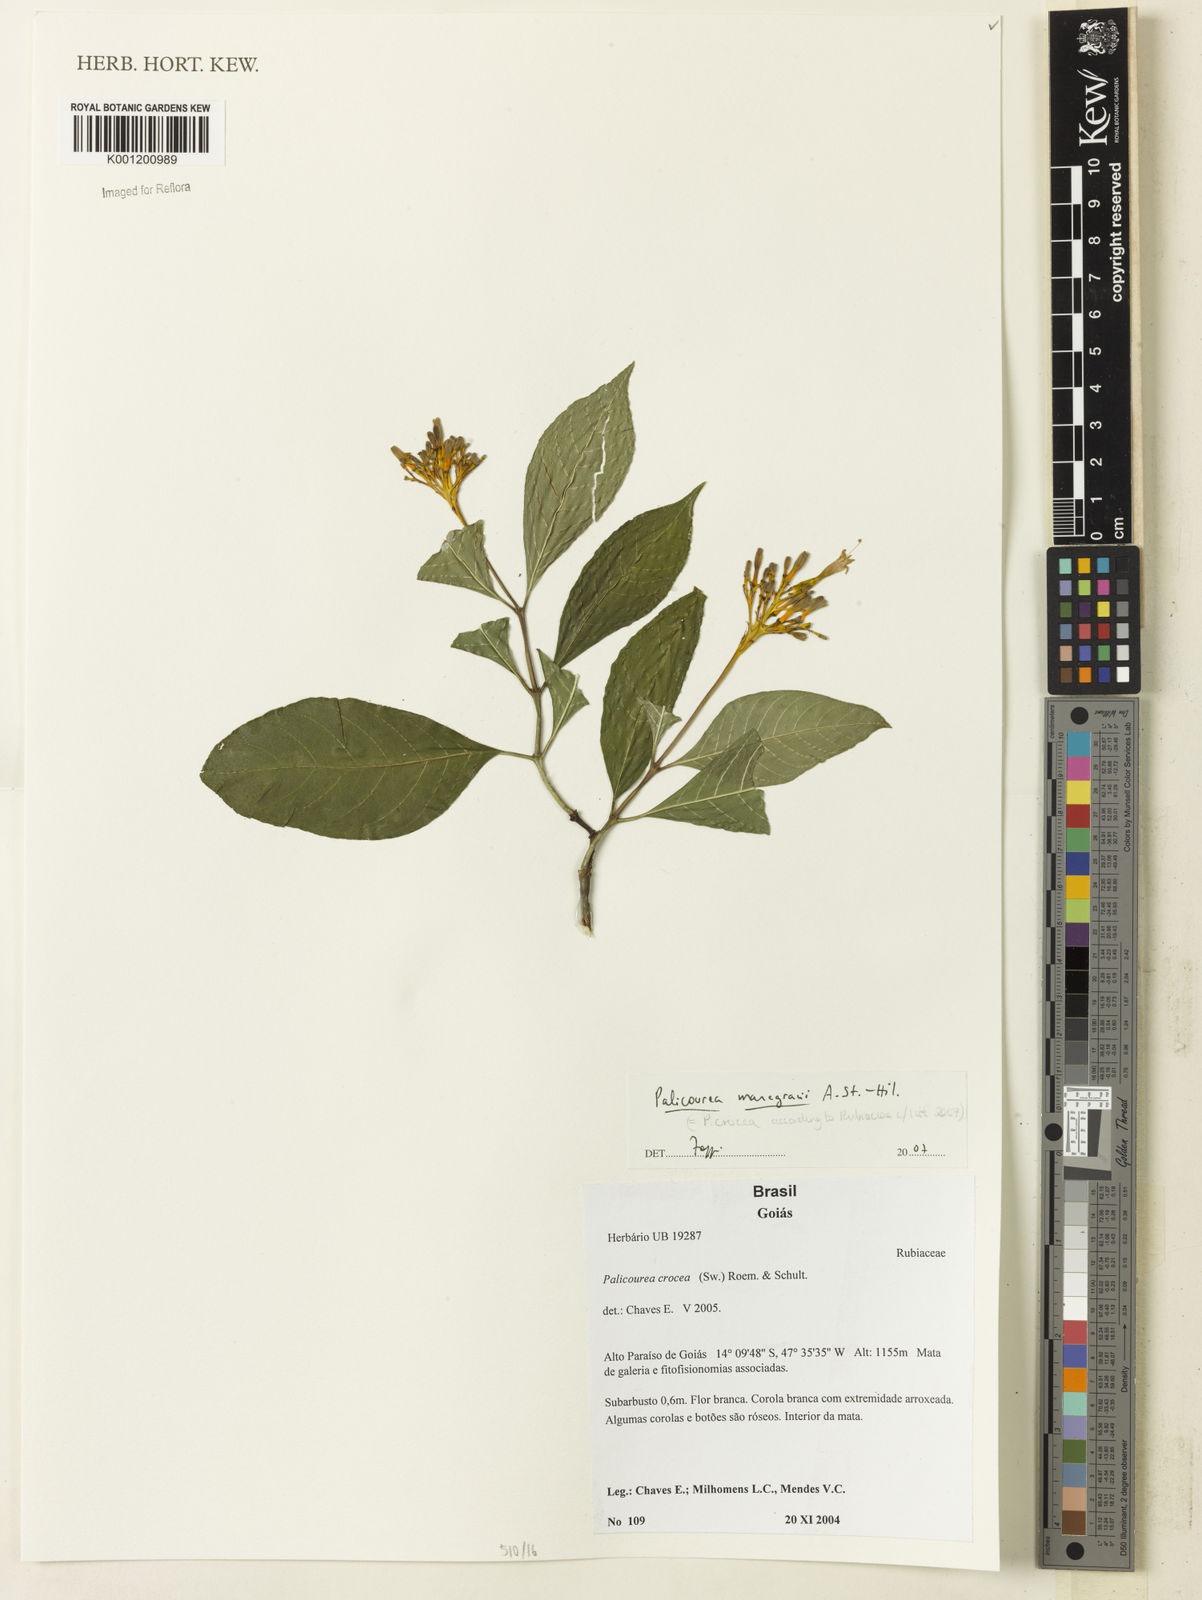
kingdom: Plantae
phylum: Tracheophyta
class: Magnoliopsida
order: Gentianales
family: Rubiaceae
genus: Palicourea
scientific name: Palicourea marcgravii
